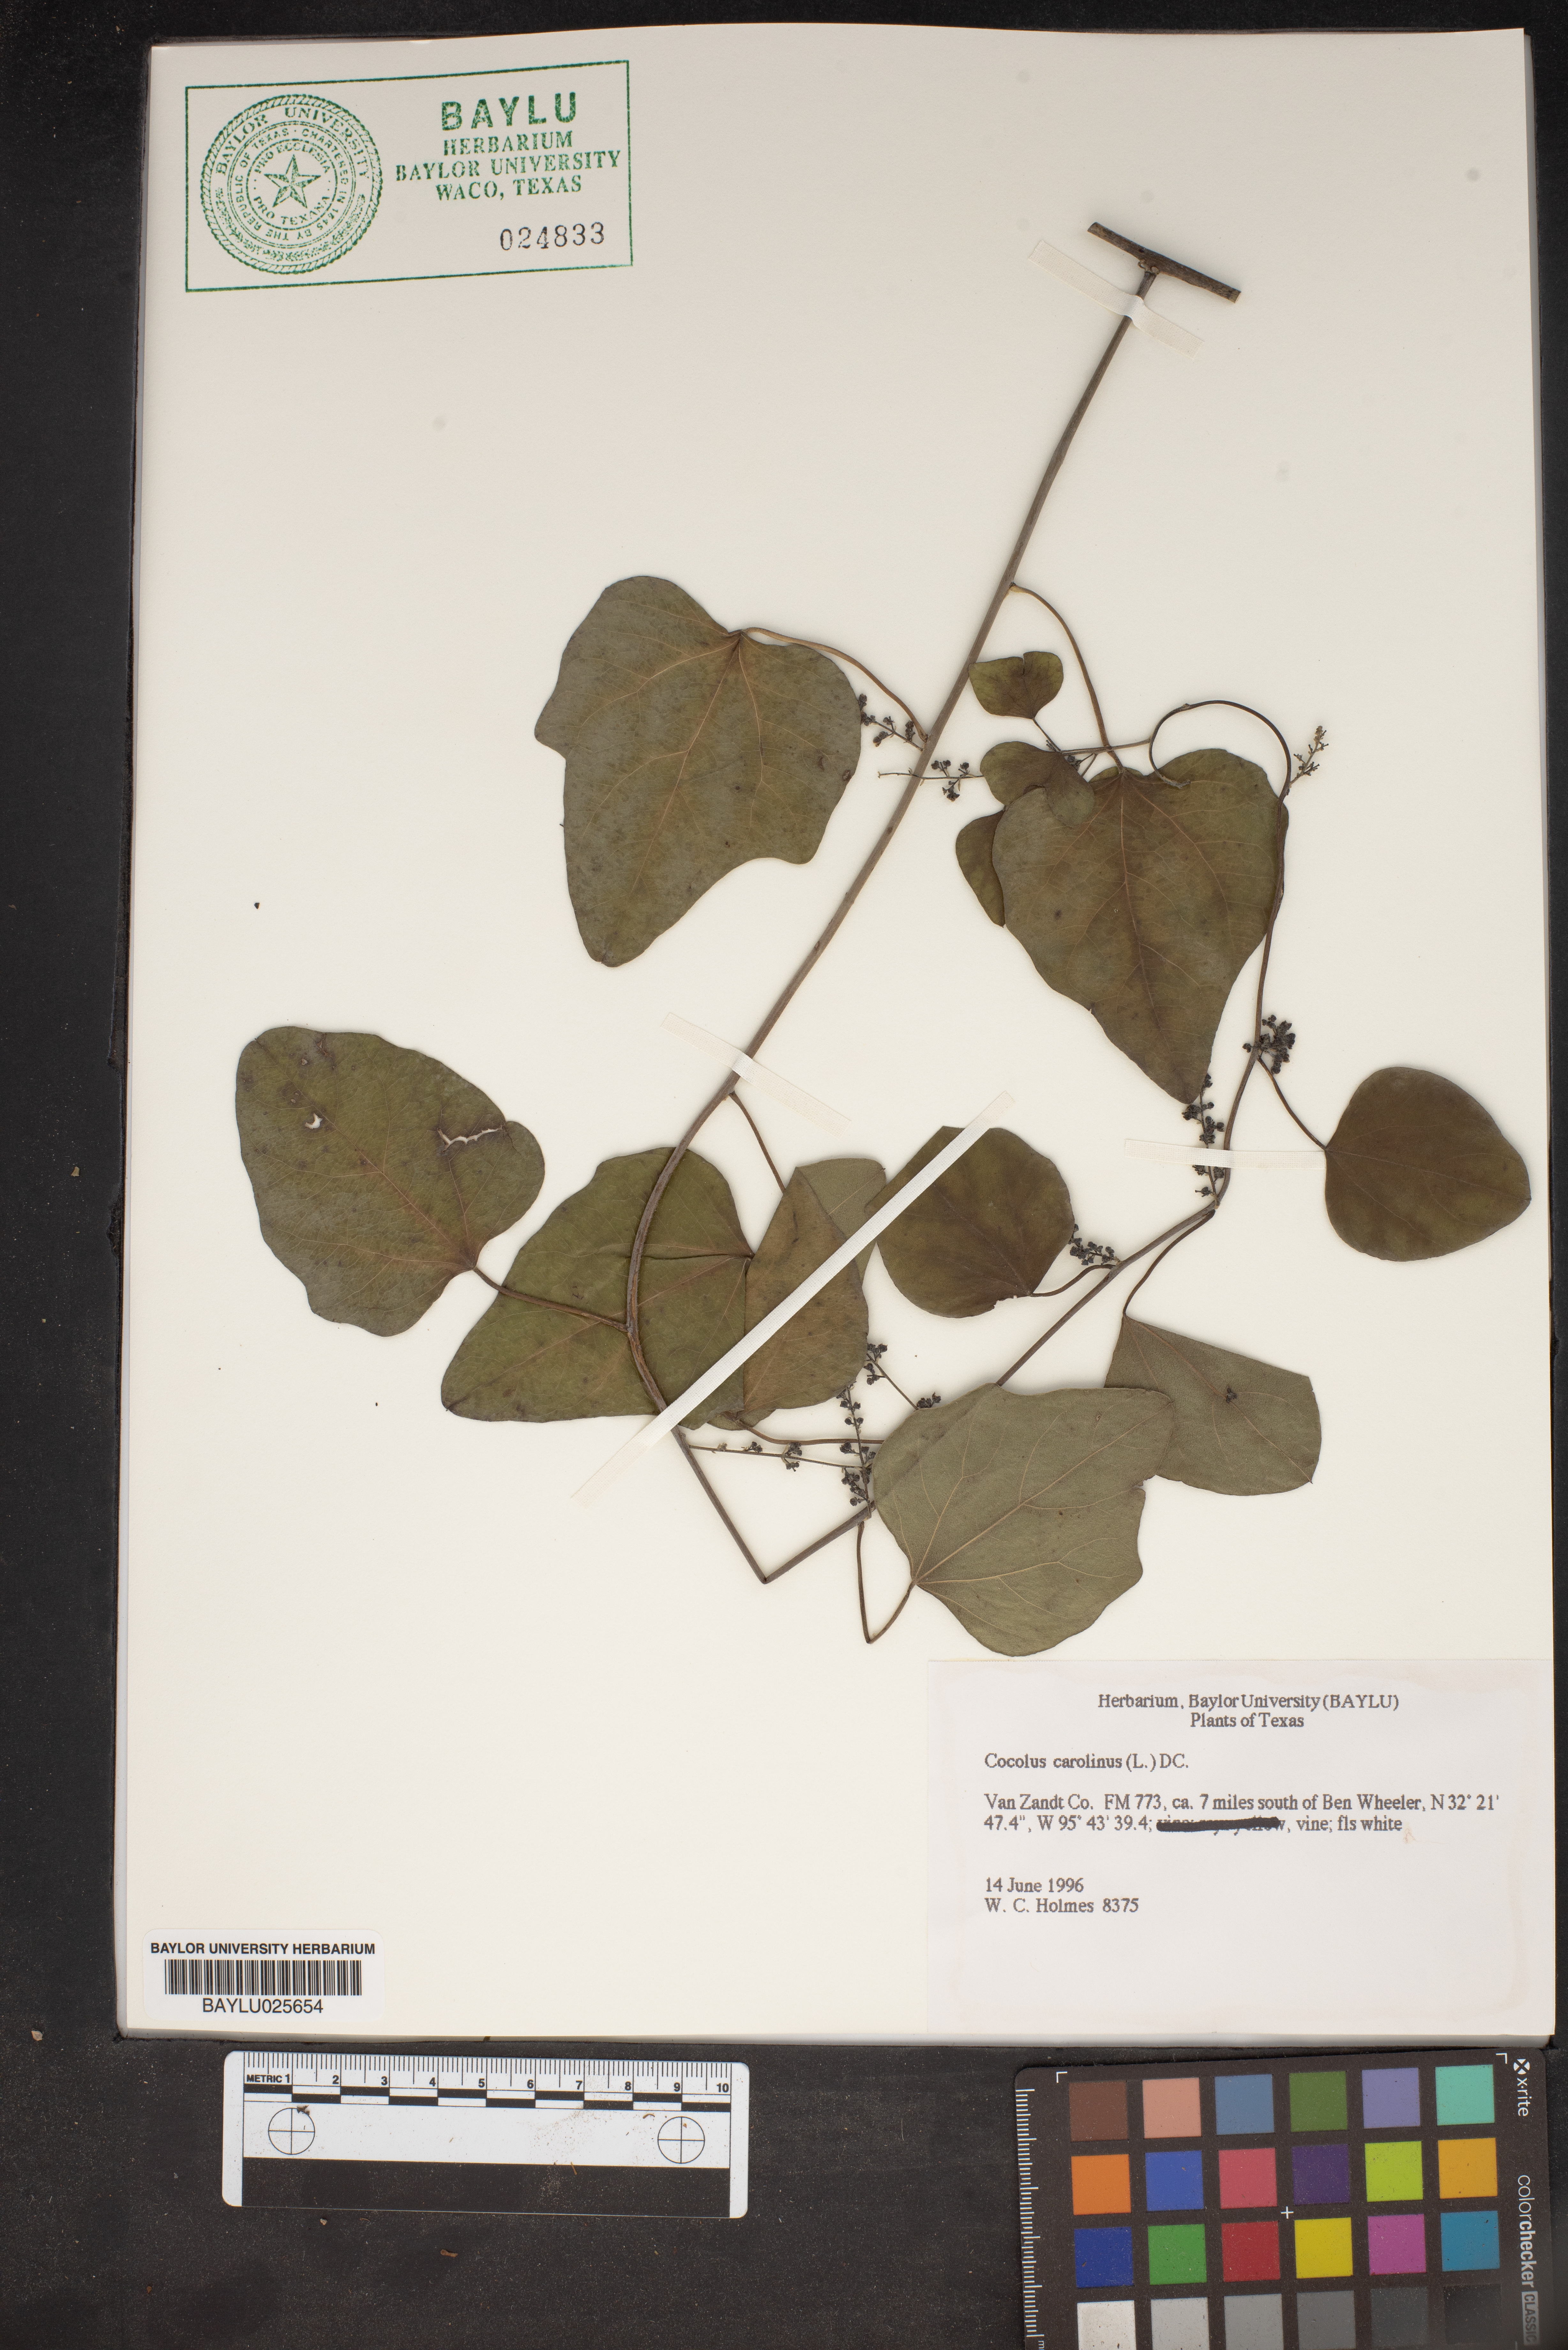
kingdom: Plantae
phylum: Tracheophyta
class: Magnoliopsida
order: Ranunculales
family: Menispermaceae
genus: Cocculus
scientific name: Cocculus carolinus
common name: Carolina moonseed
